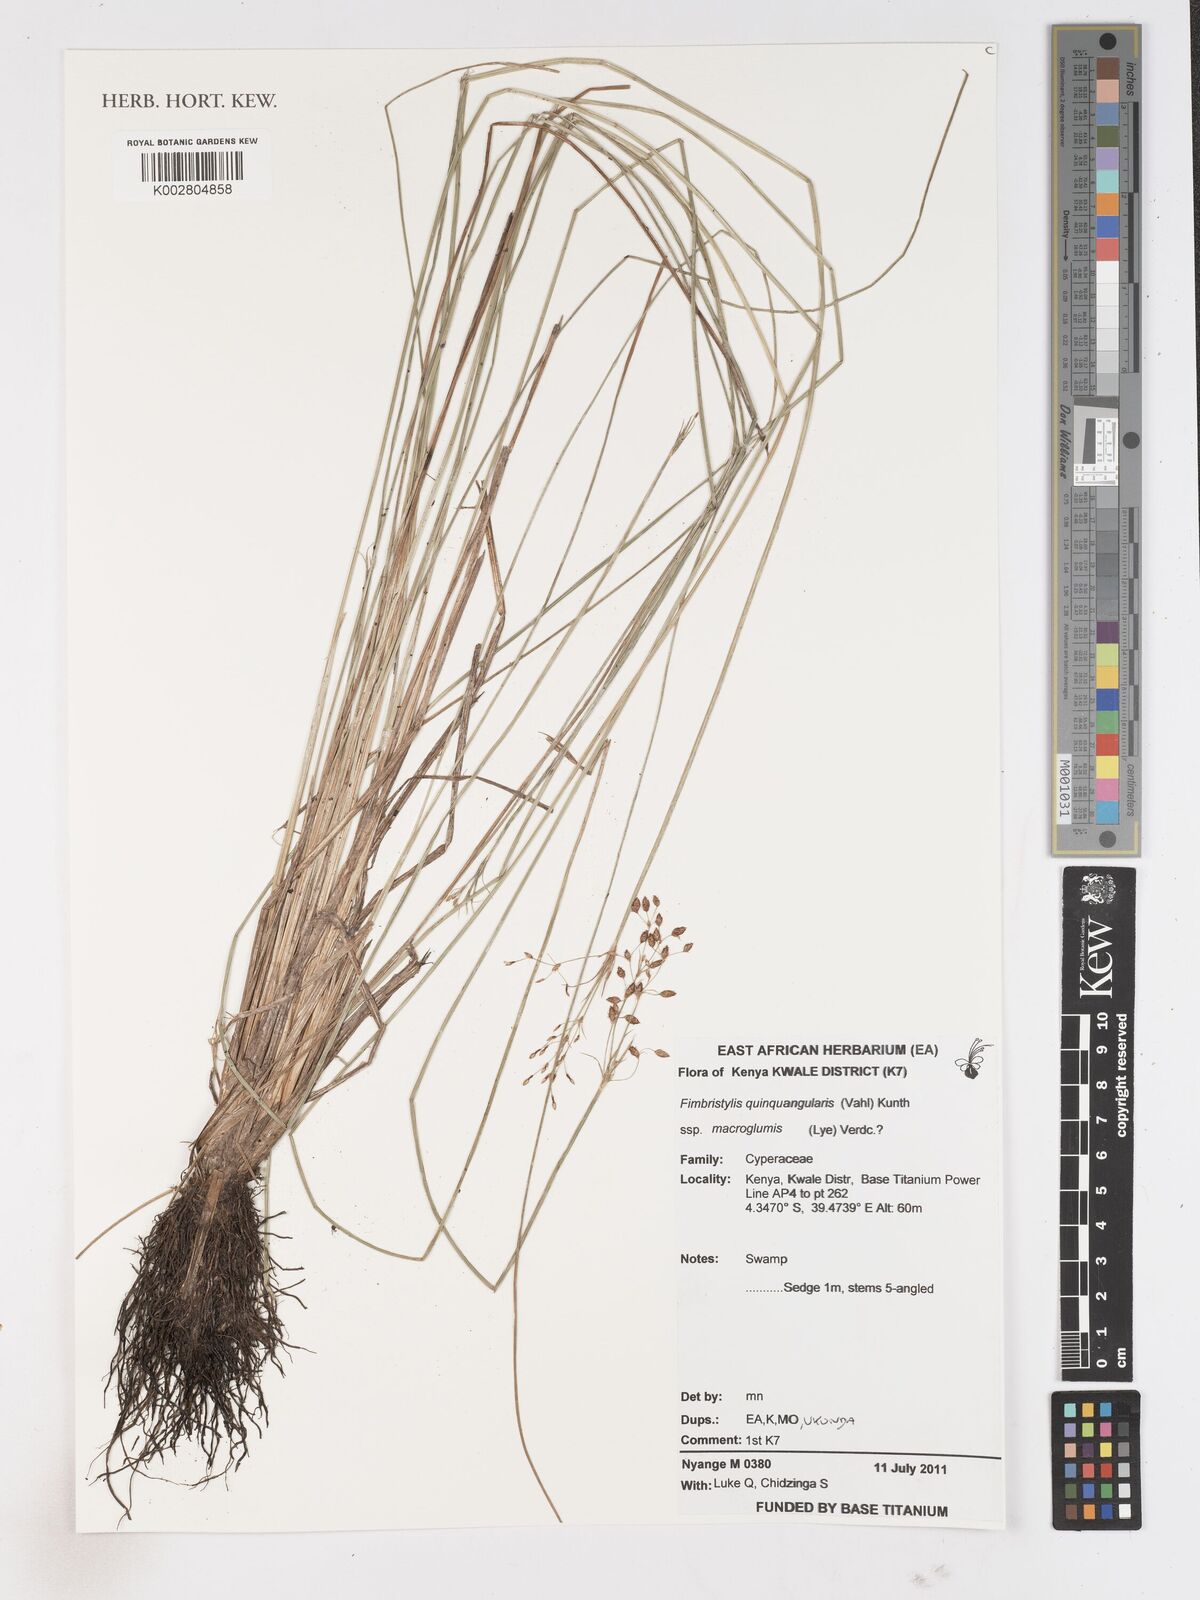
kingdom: Plantae
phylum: Tracheophyta
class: Liliopsida
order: Poales
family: Cyperaceae
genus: Fimbristylis
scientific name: Fimbristylis quinquangularis
